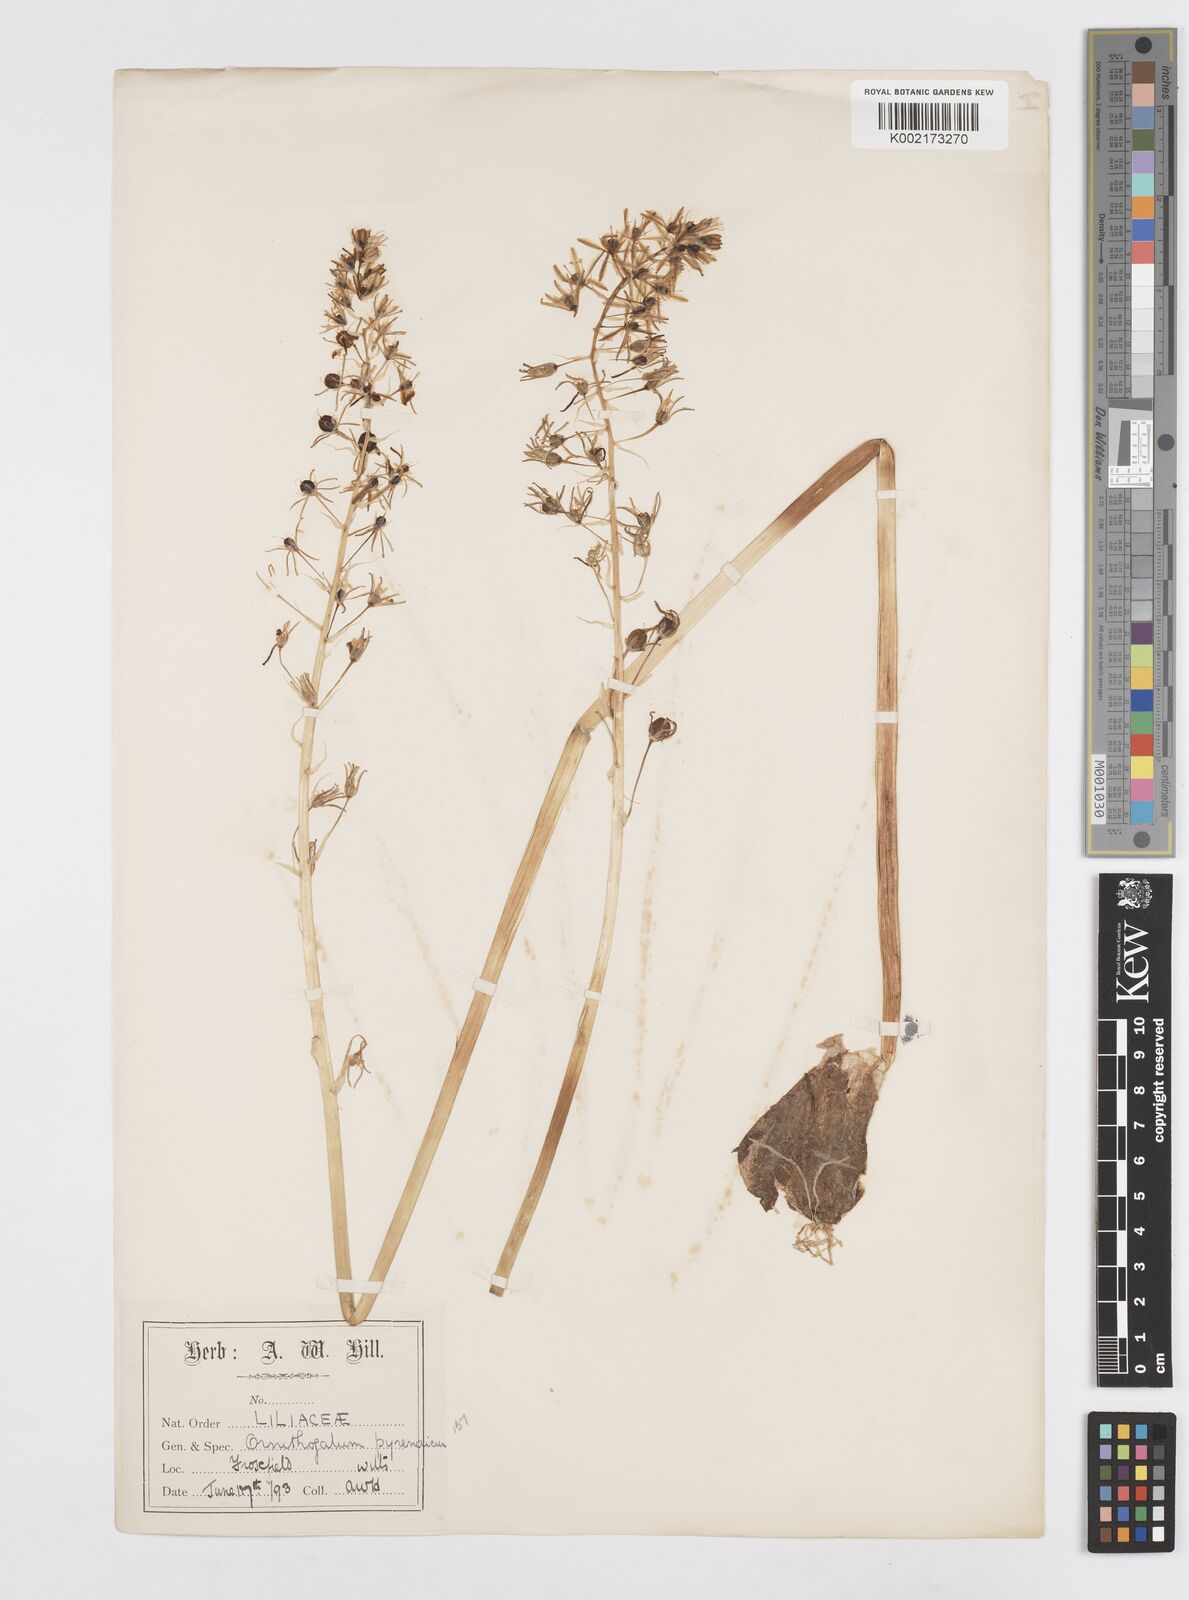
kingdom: Plantae
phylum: Tracheophyta
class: Liliopsida
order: Asparagales
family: Asparagaceae
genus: Ornithogalum
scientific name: Ornithogalum pyrenaicum
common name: Spiked star-of-bethlehem
